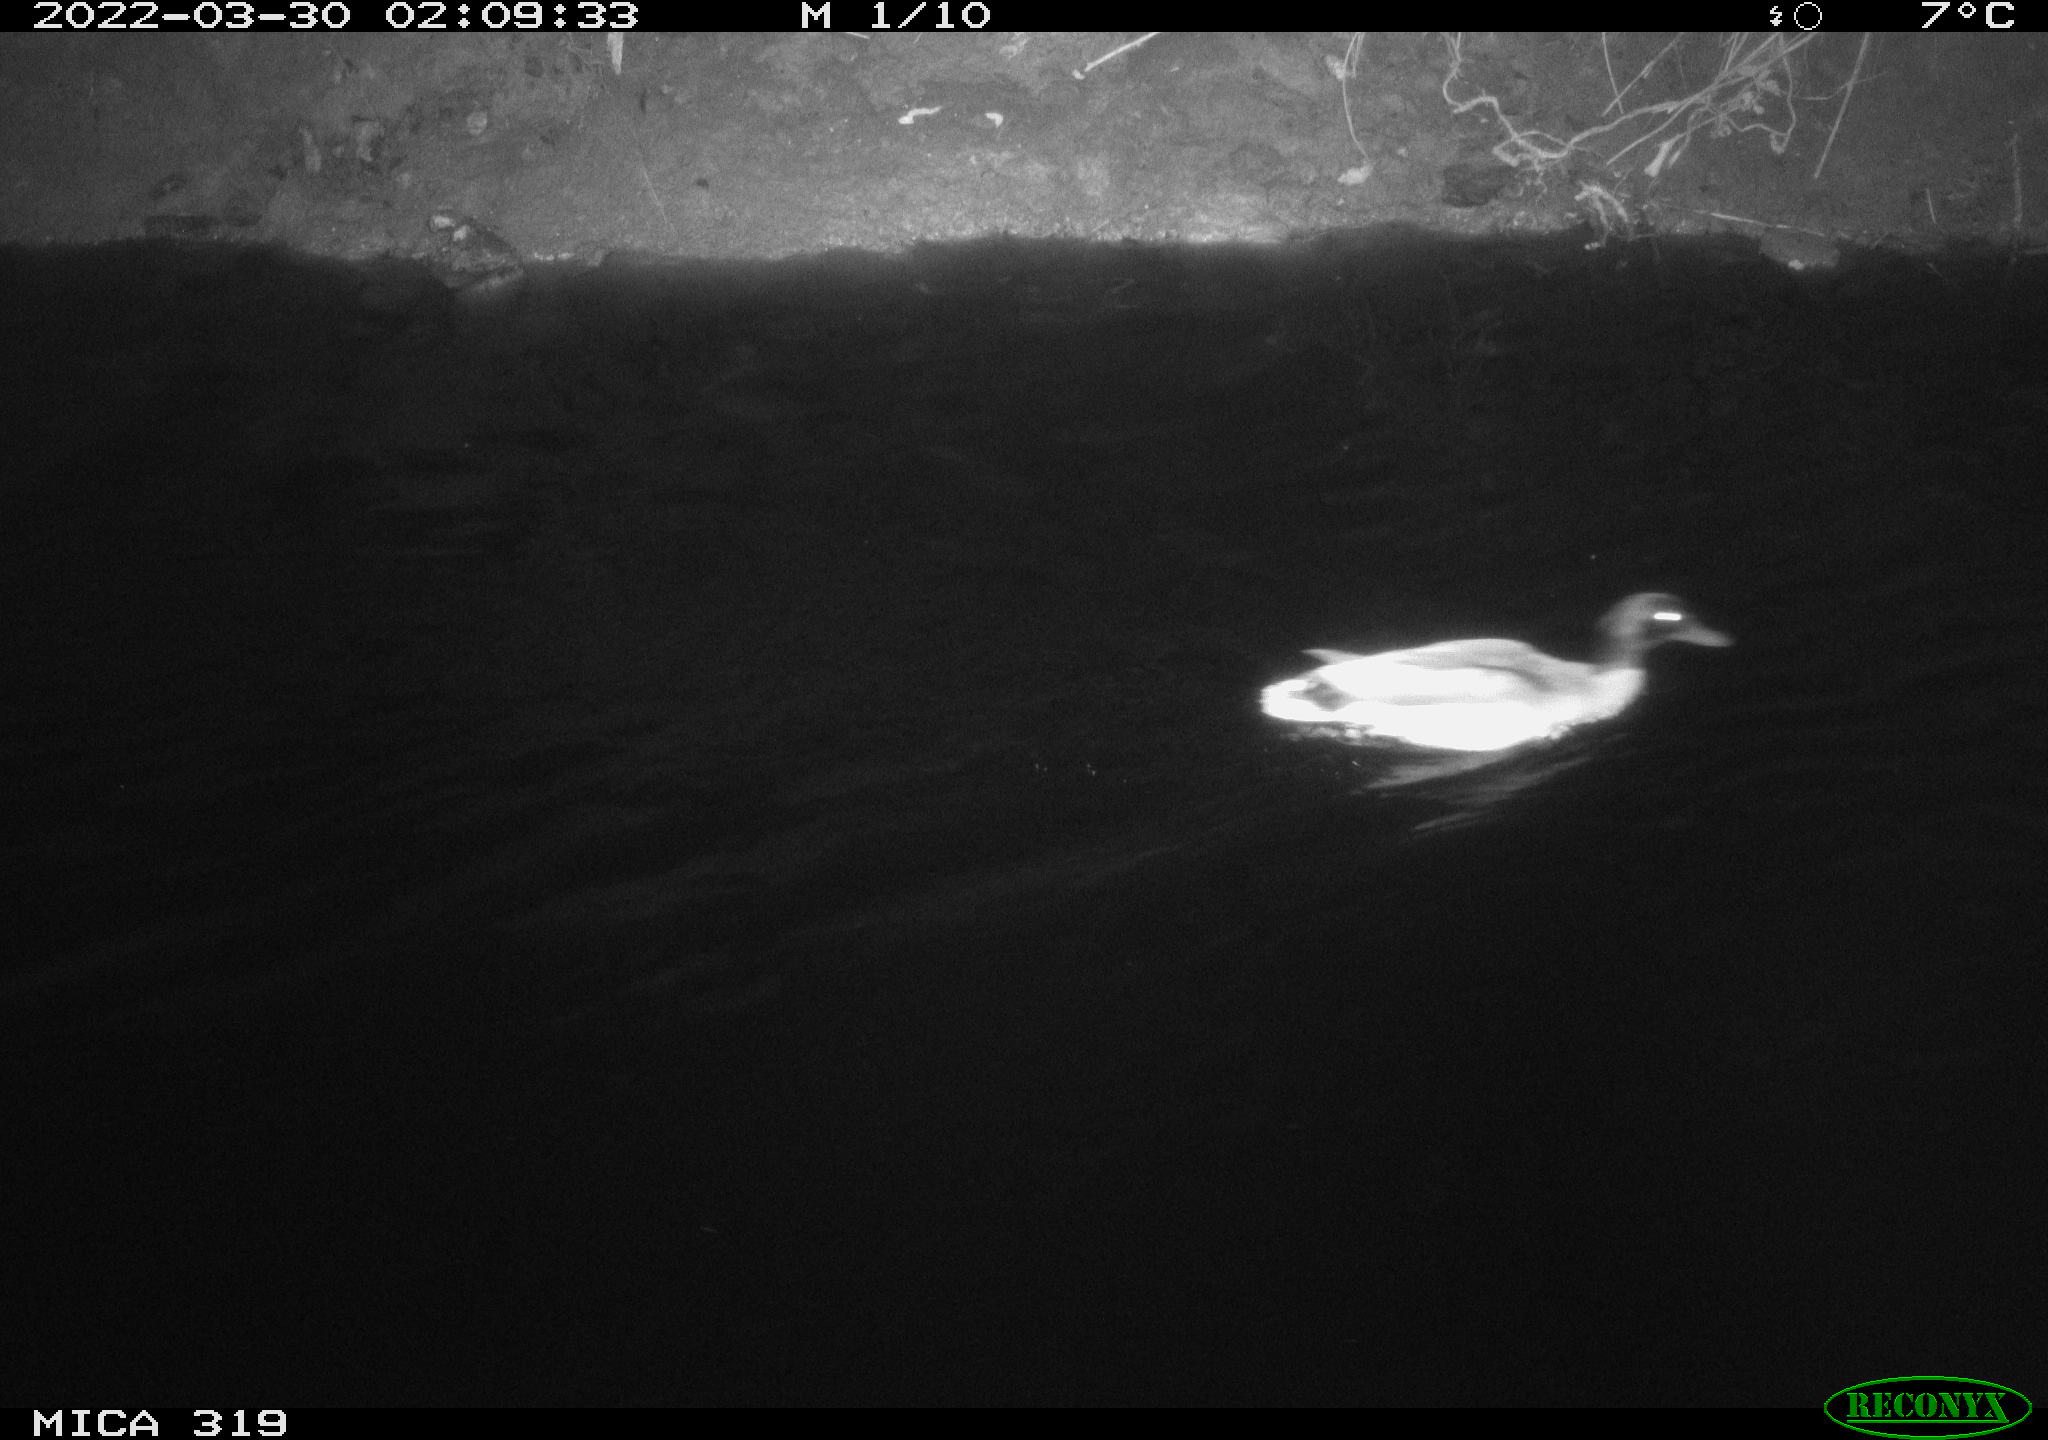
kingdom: Animalia
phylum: Chordata
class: Aves
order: Anseriformes
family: Anatidae
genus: Anas
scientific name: Anas platyrhynchos
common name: Mallard
